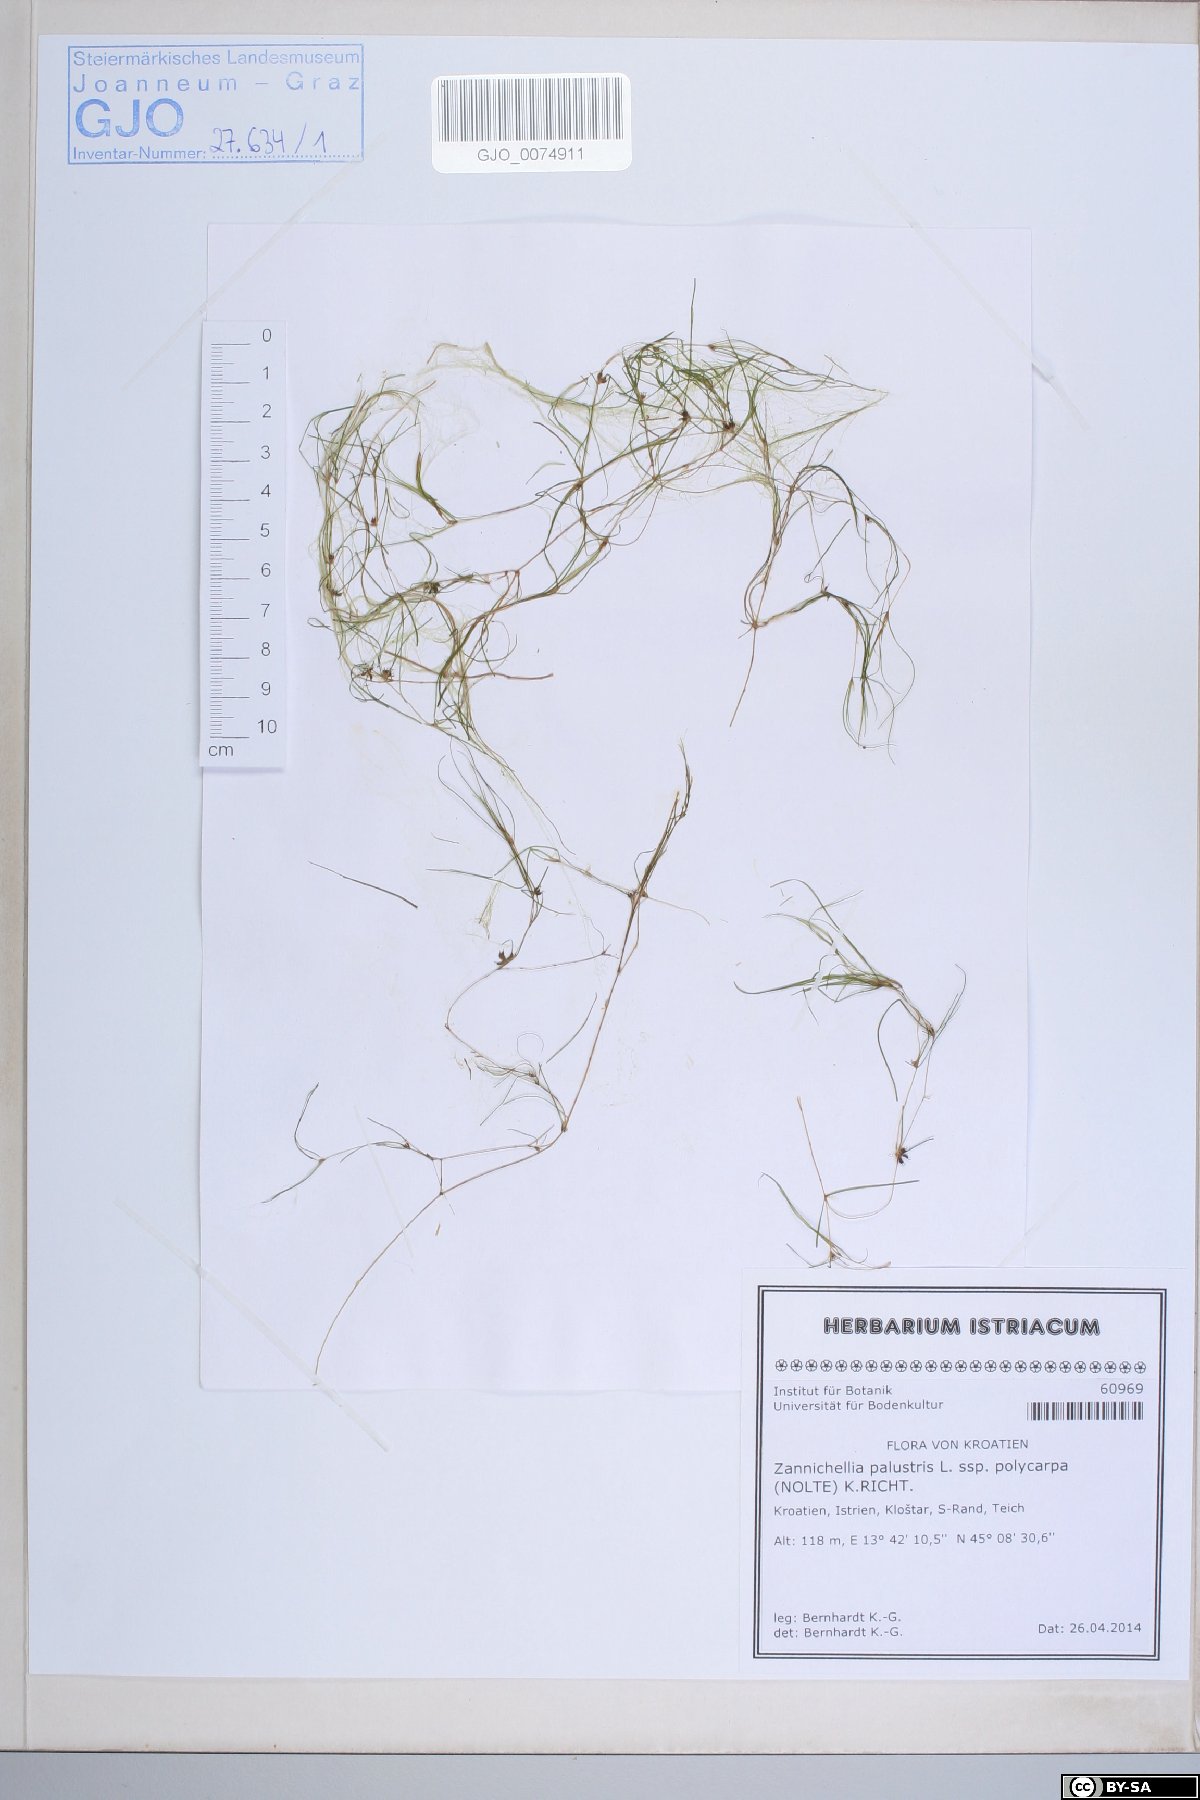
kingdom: Plantae
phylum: Tracheophyta
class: Liliopsida
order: Alismatales
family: Potamogetonaceae
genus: Zannichellia
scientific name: Zannichellia palustris
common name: Horned pondweed
